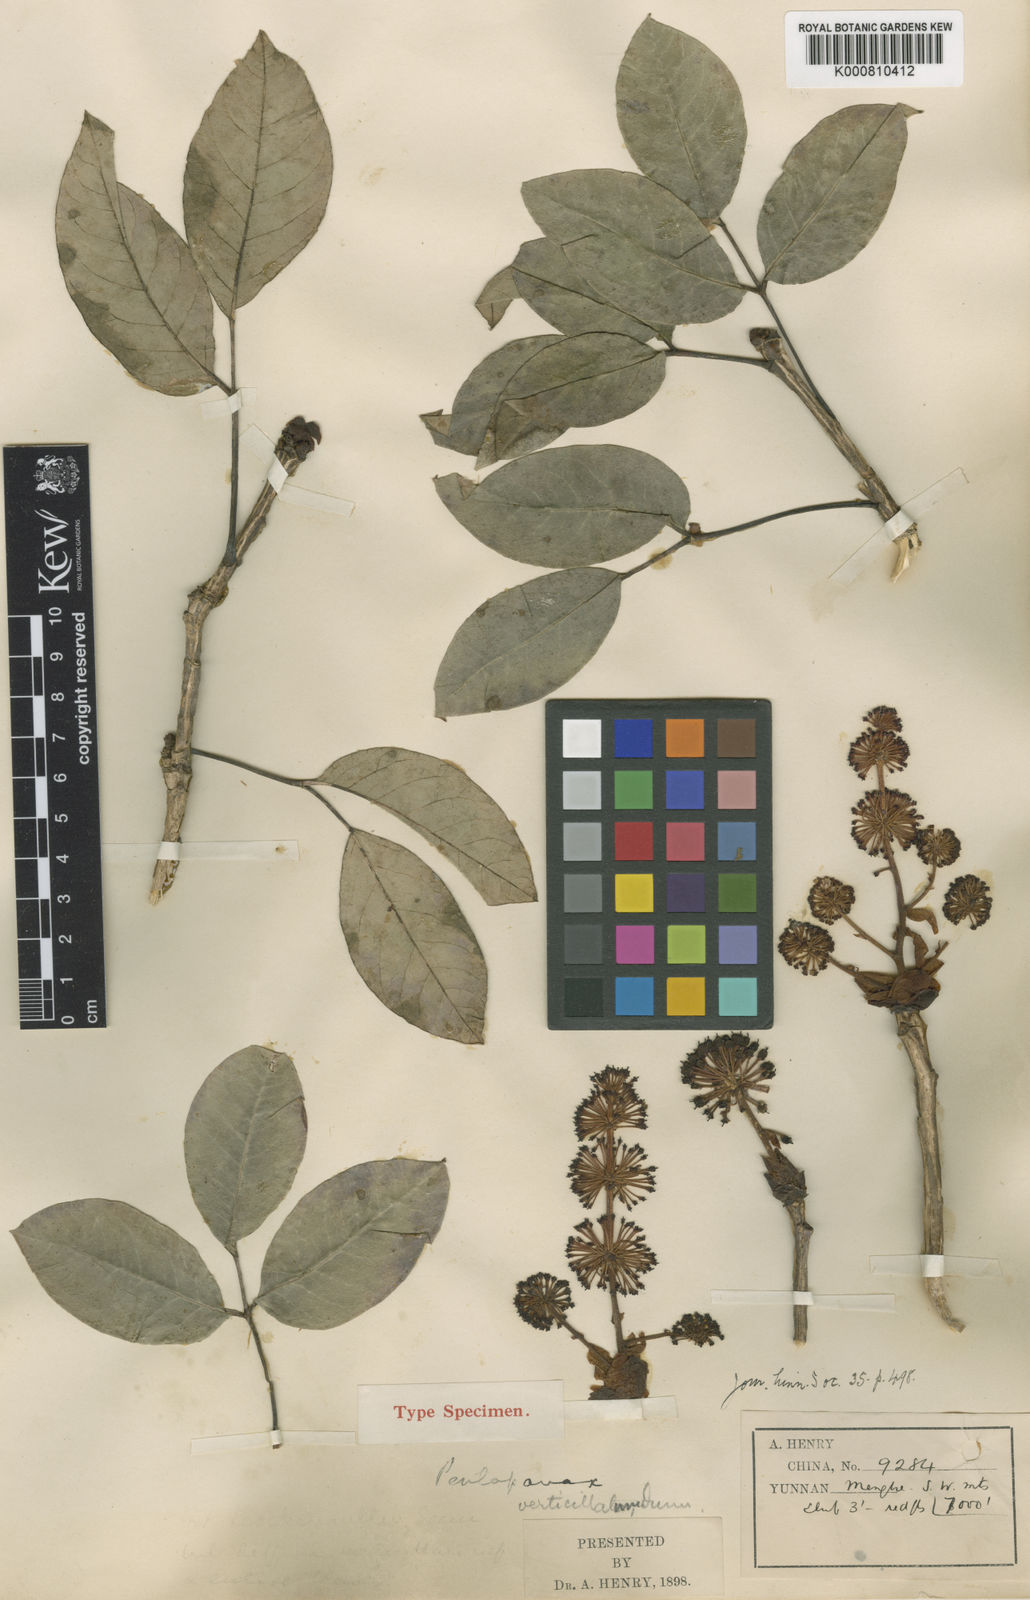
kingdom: Plantae
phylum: Tracheophyta
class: Magnoliopsida
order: Apiales
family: Araliaceae
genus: Aralia
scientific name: Aralia verticillata
